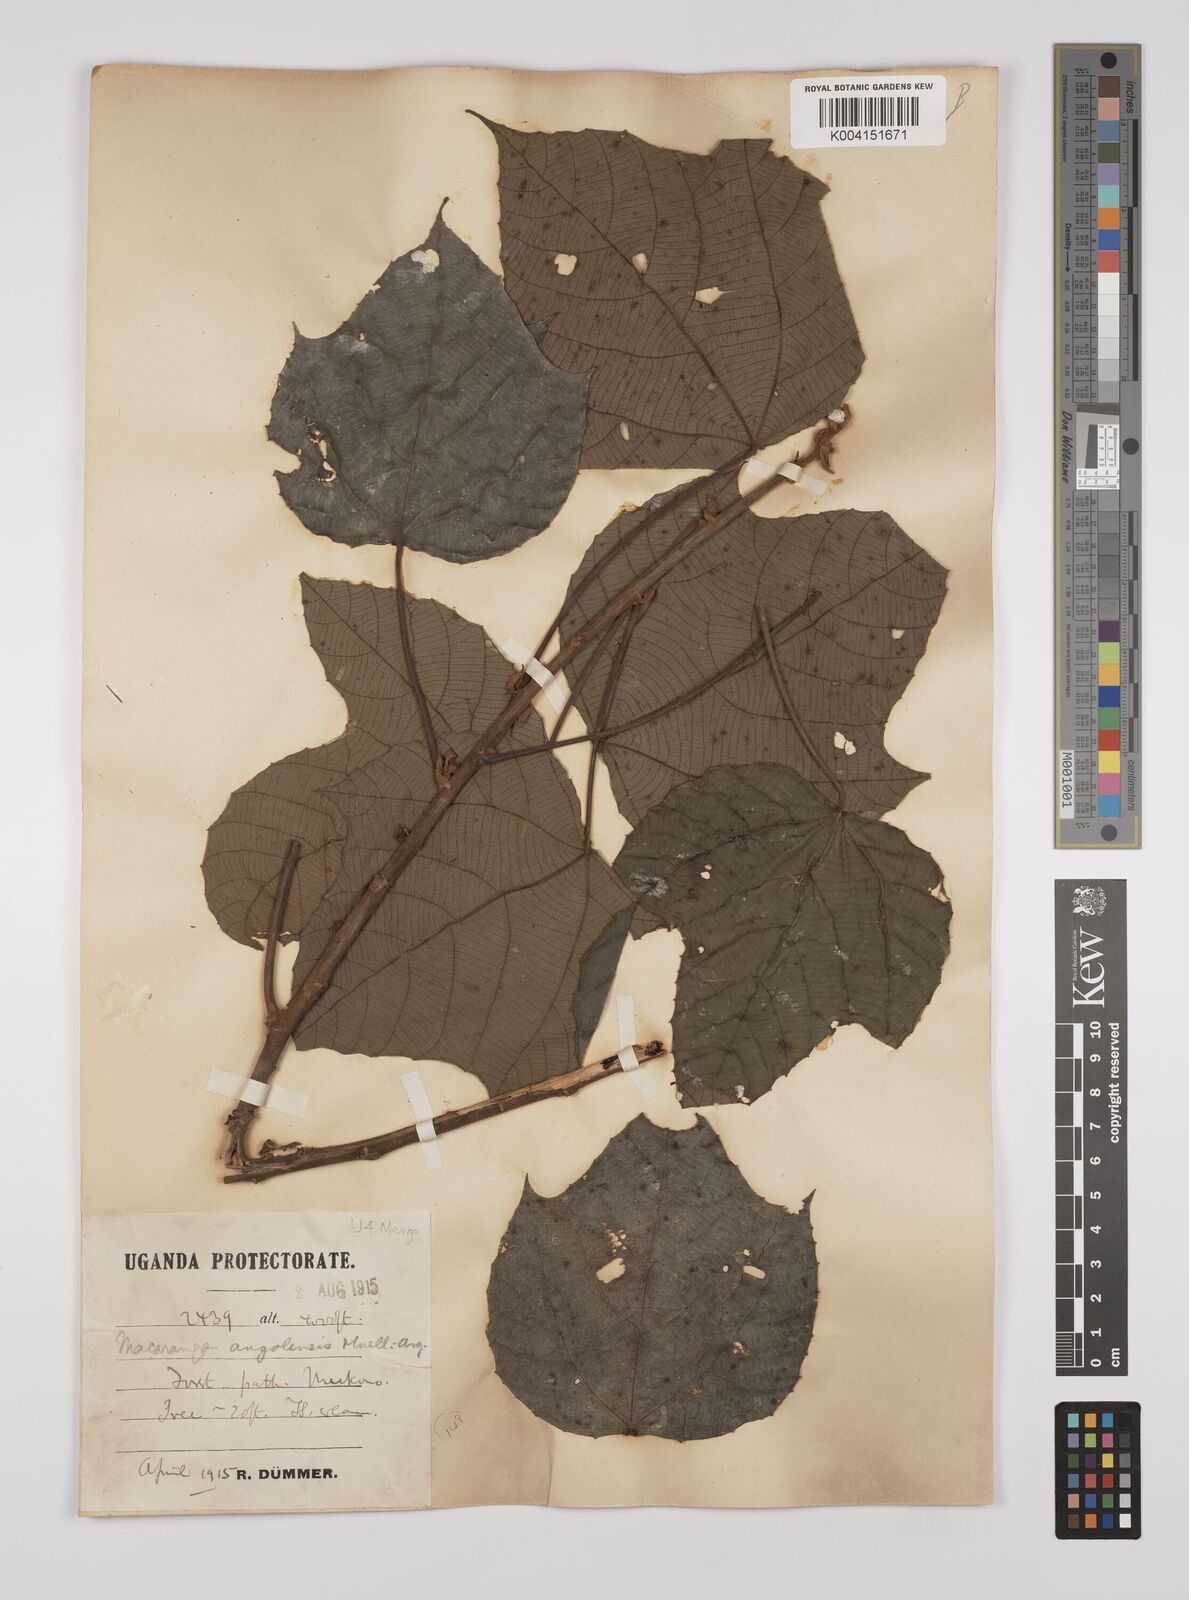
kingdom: Plantae
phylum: Tracheophyta
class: Magnoliopsida
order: Malpighiales
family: Euphorbiaceae
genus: Macaranga
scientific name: Macaranga angolensis
